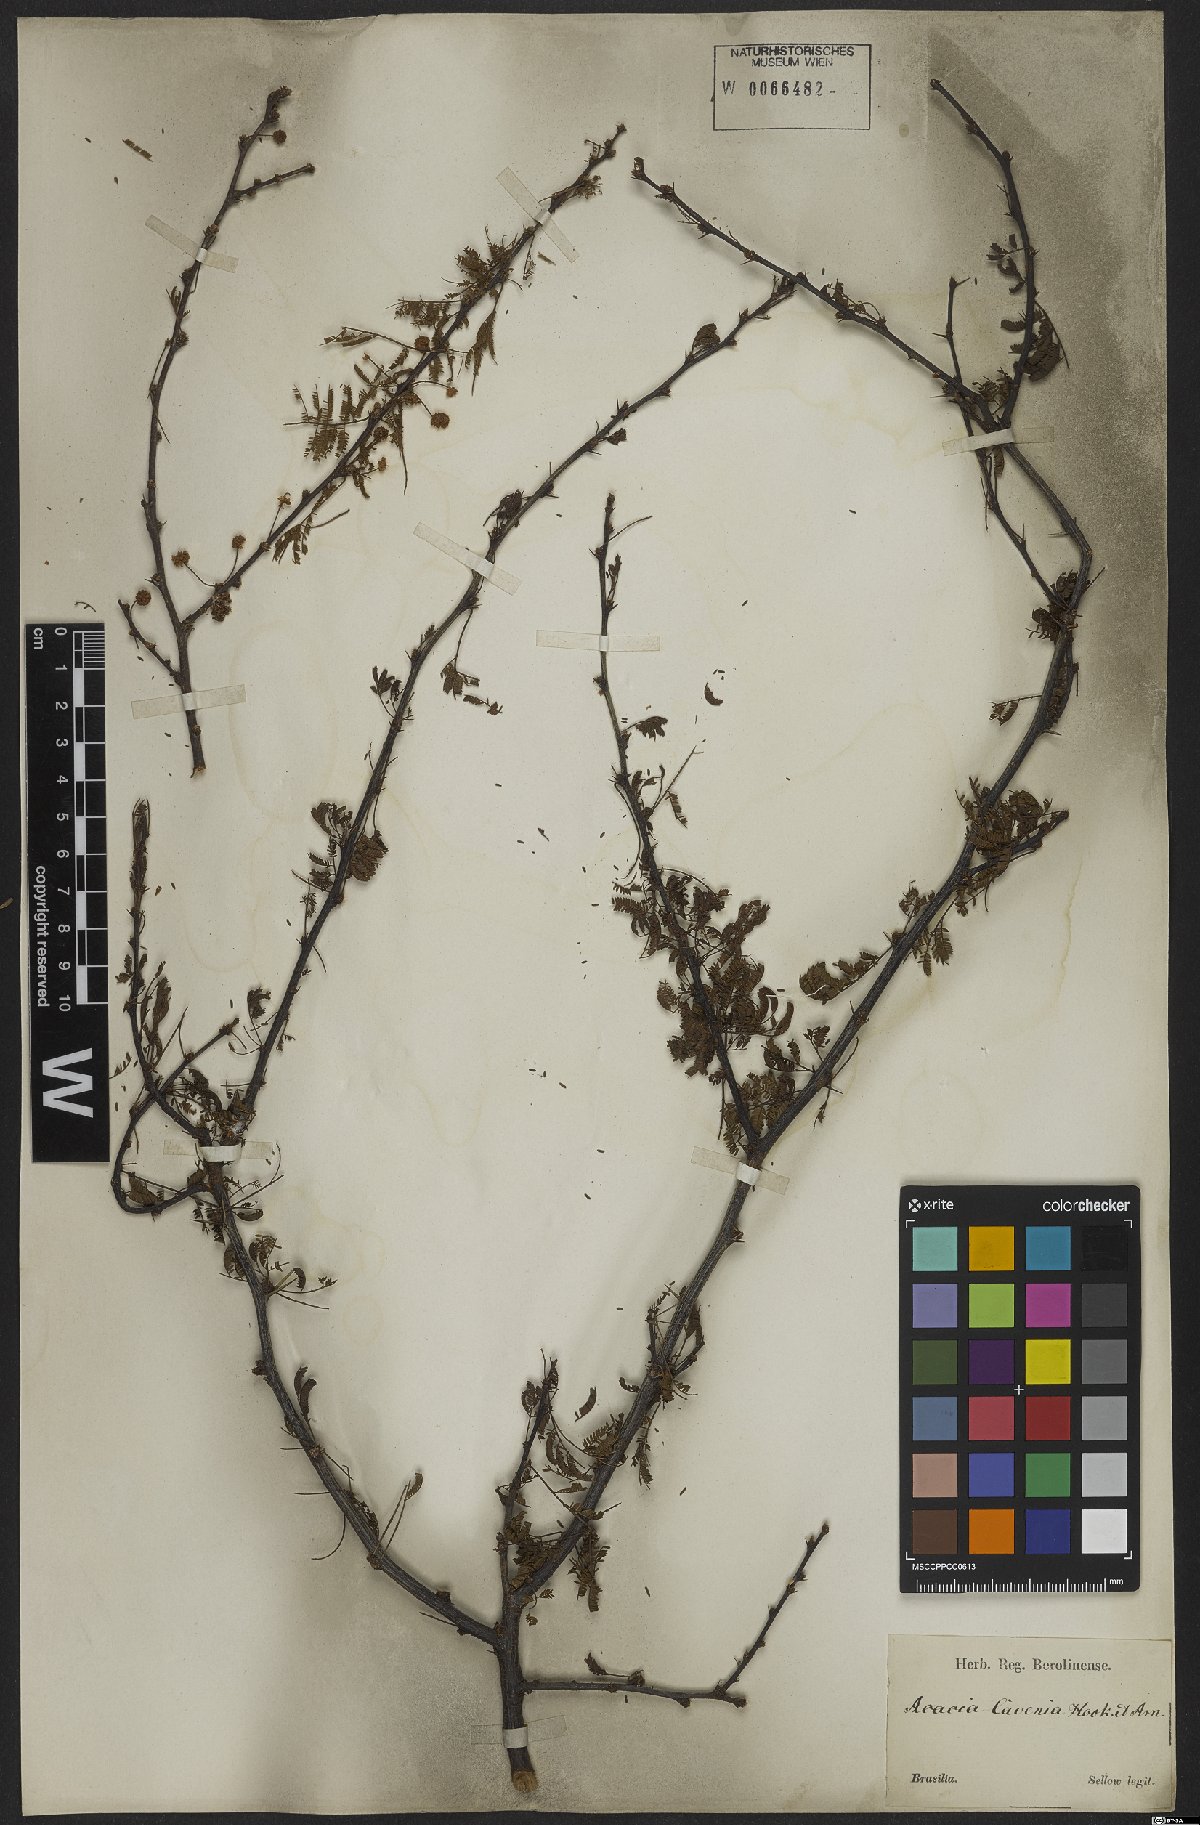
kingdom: Plantae
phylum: Tracheophyta
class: Magnoliopsida
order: Fabales
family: Fabaceae
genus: Vachellia
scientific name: Vachellia caven
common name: Roman cassie
